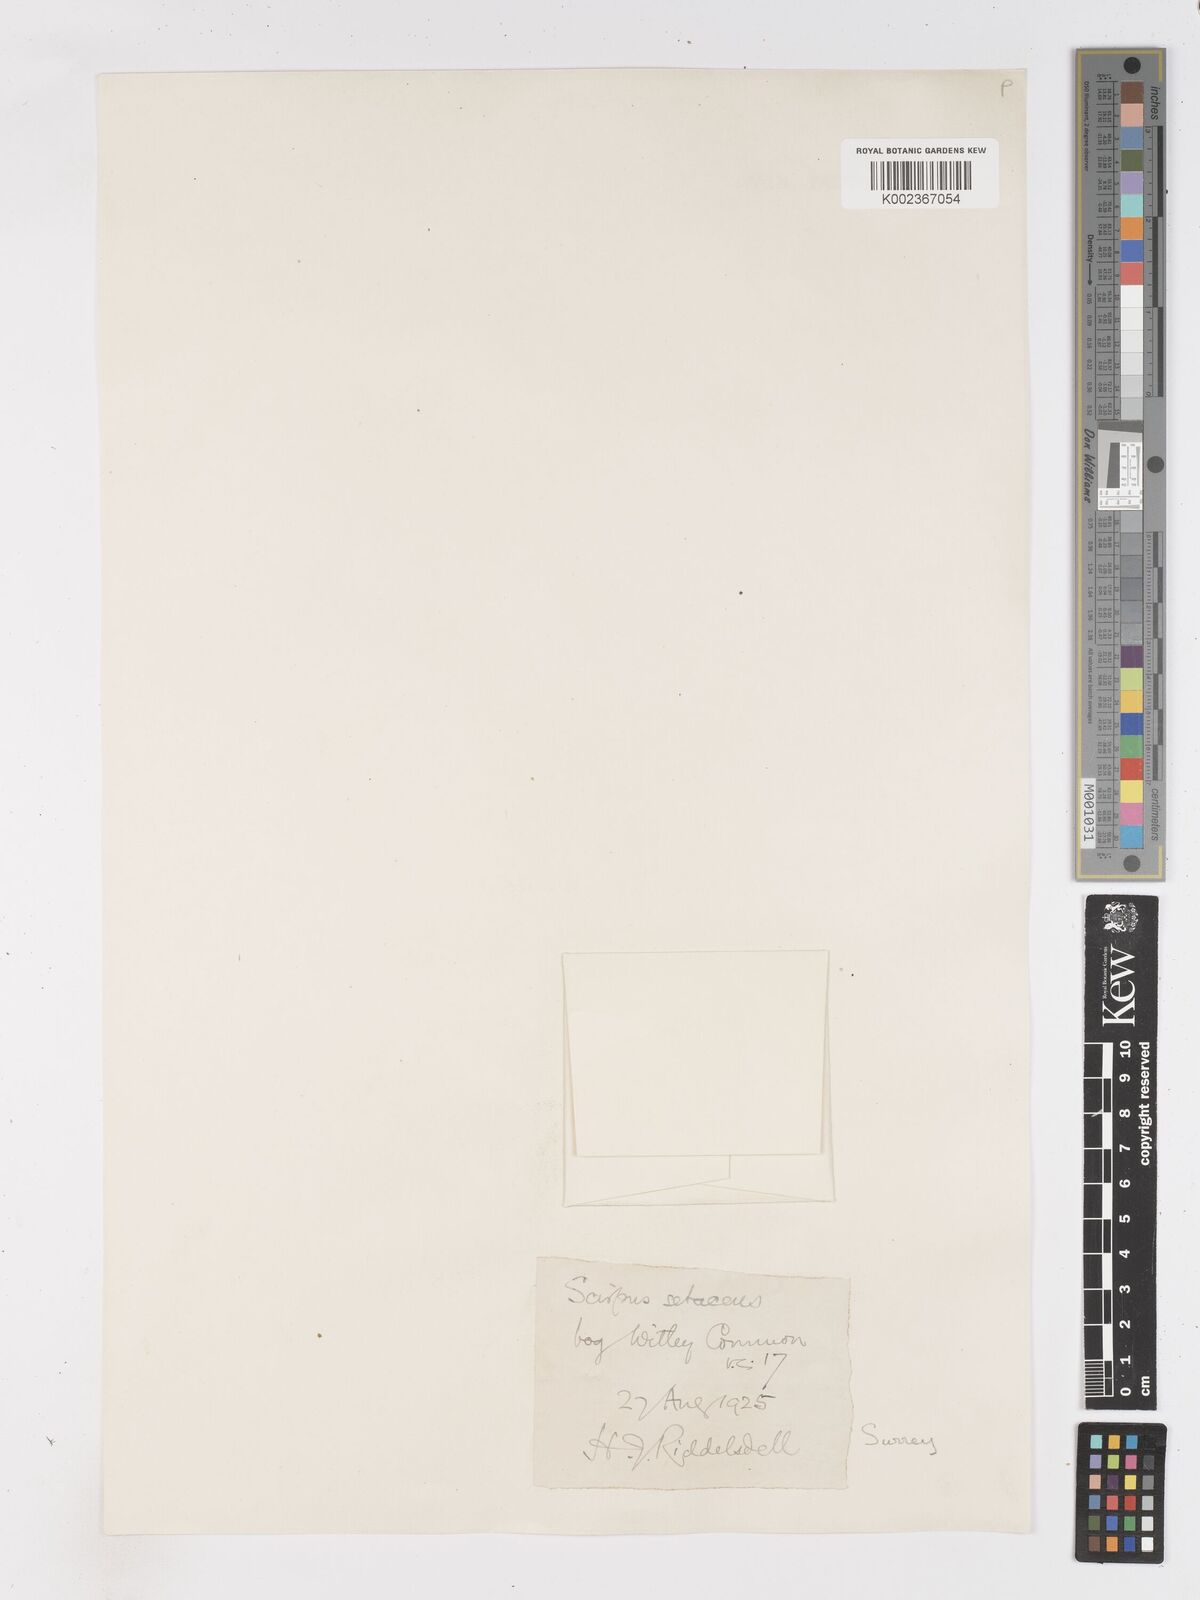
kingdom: Plantae
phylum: Tracheophyta
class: Liliopsida
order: Poales
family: Cyperaceae
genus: Isolepis
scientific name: Isolepis setacea
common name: Bristle club-rush
